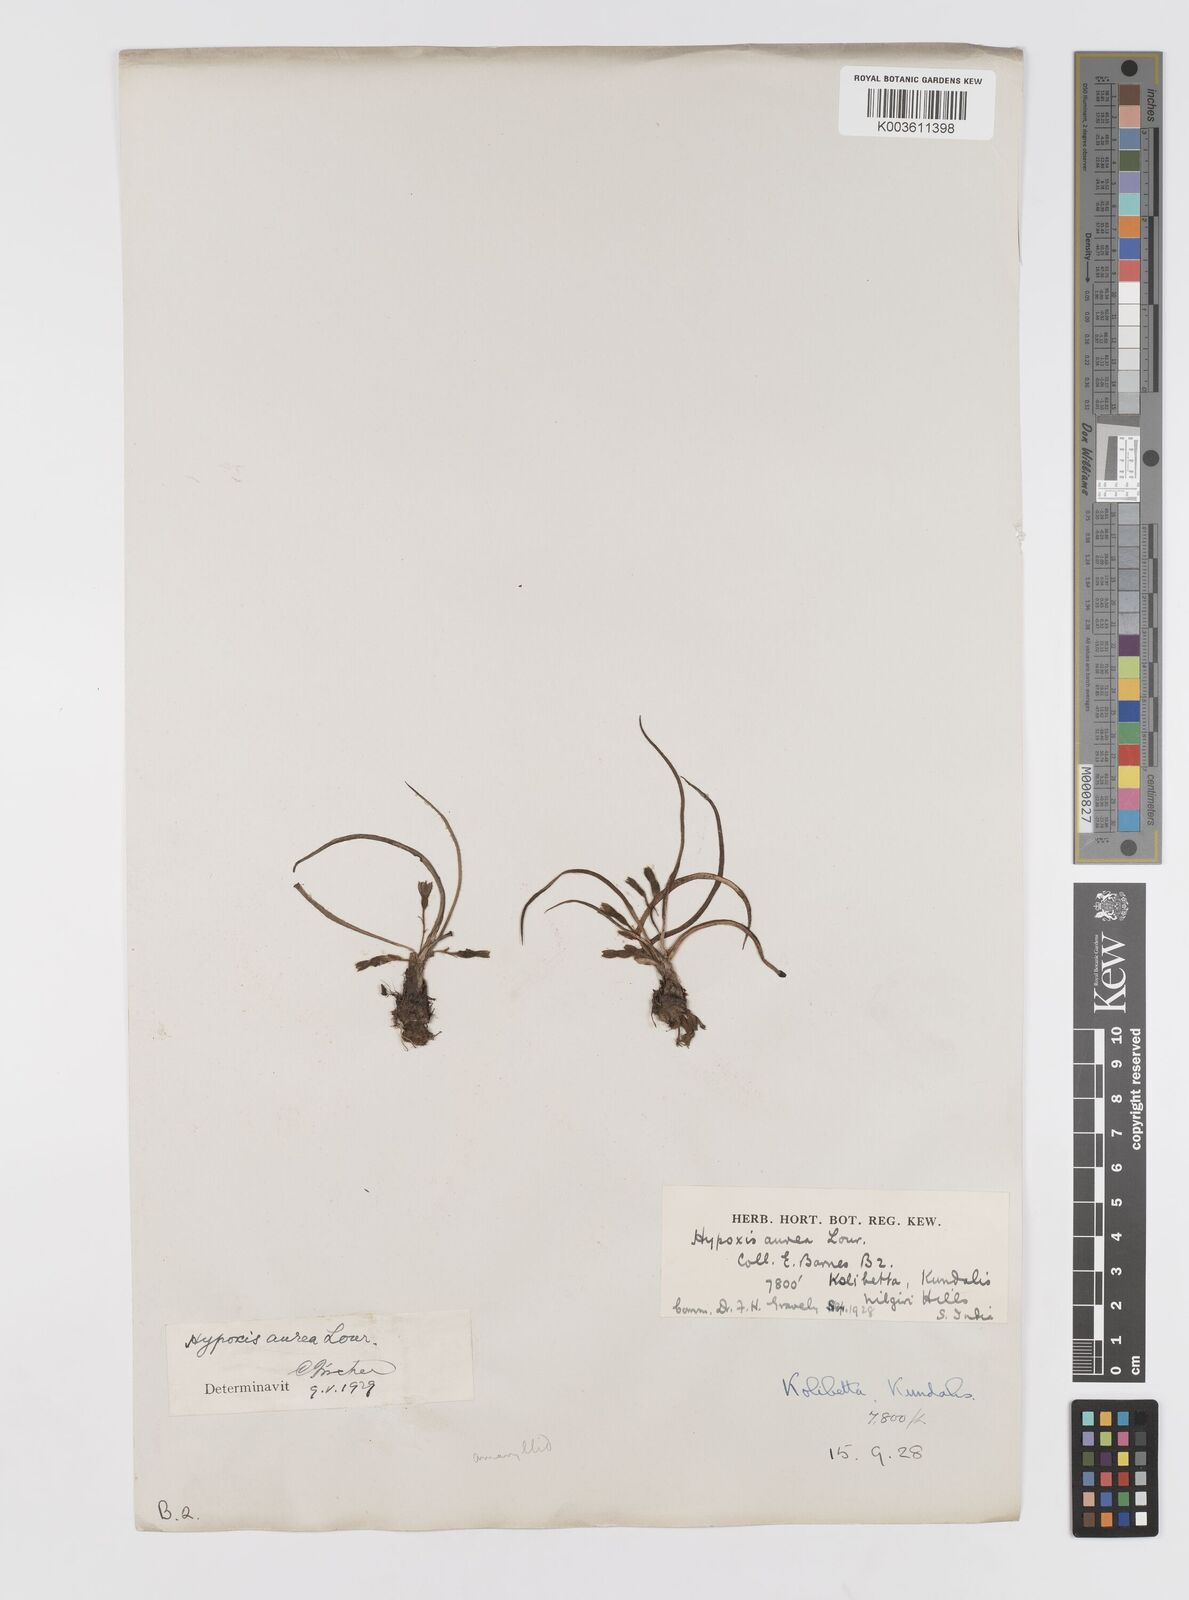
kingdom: Plantae
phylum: Tracheophyta
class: Liliopsida
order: Asparagales
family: Hypoxidaceae
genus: Hypoxis
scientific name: Hypoxis aurea
